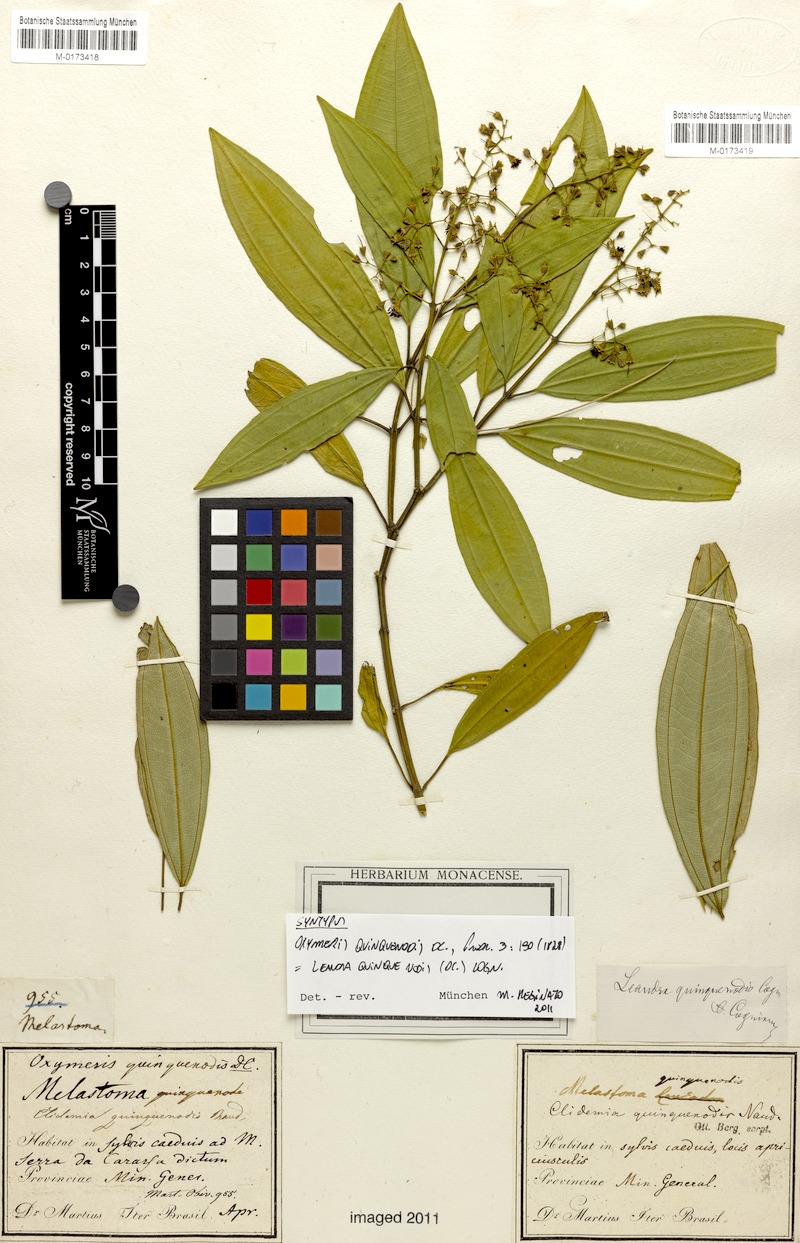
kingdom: Plantae
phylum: Tracheophyta
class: Magnoliopsida
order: Myrtales
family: Melastomataceae
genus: Miconia
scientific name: Miconia quinquenodis
